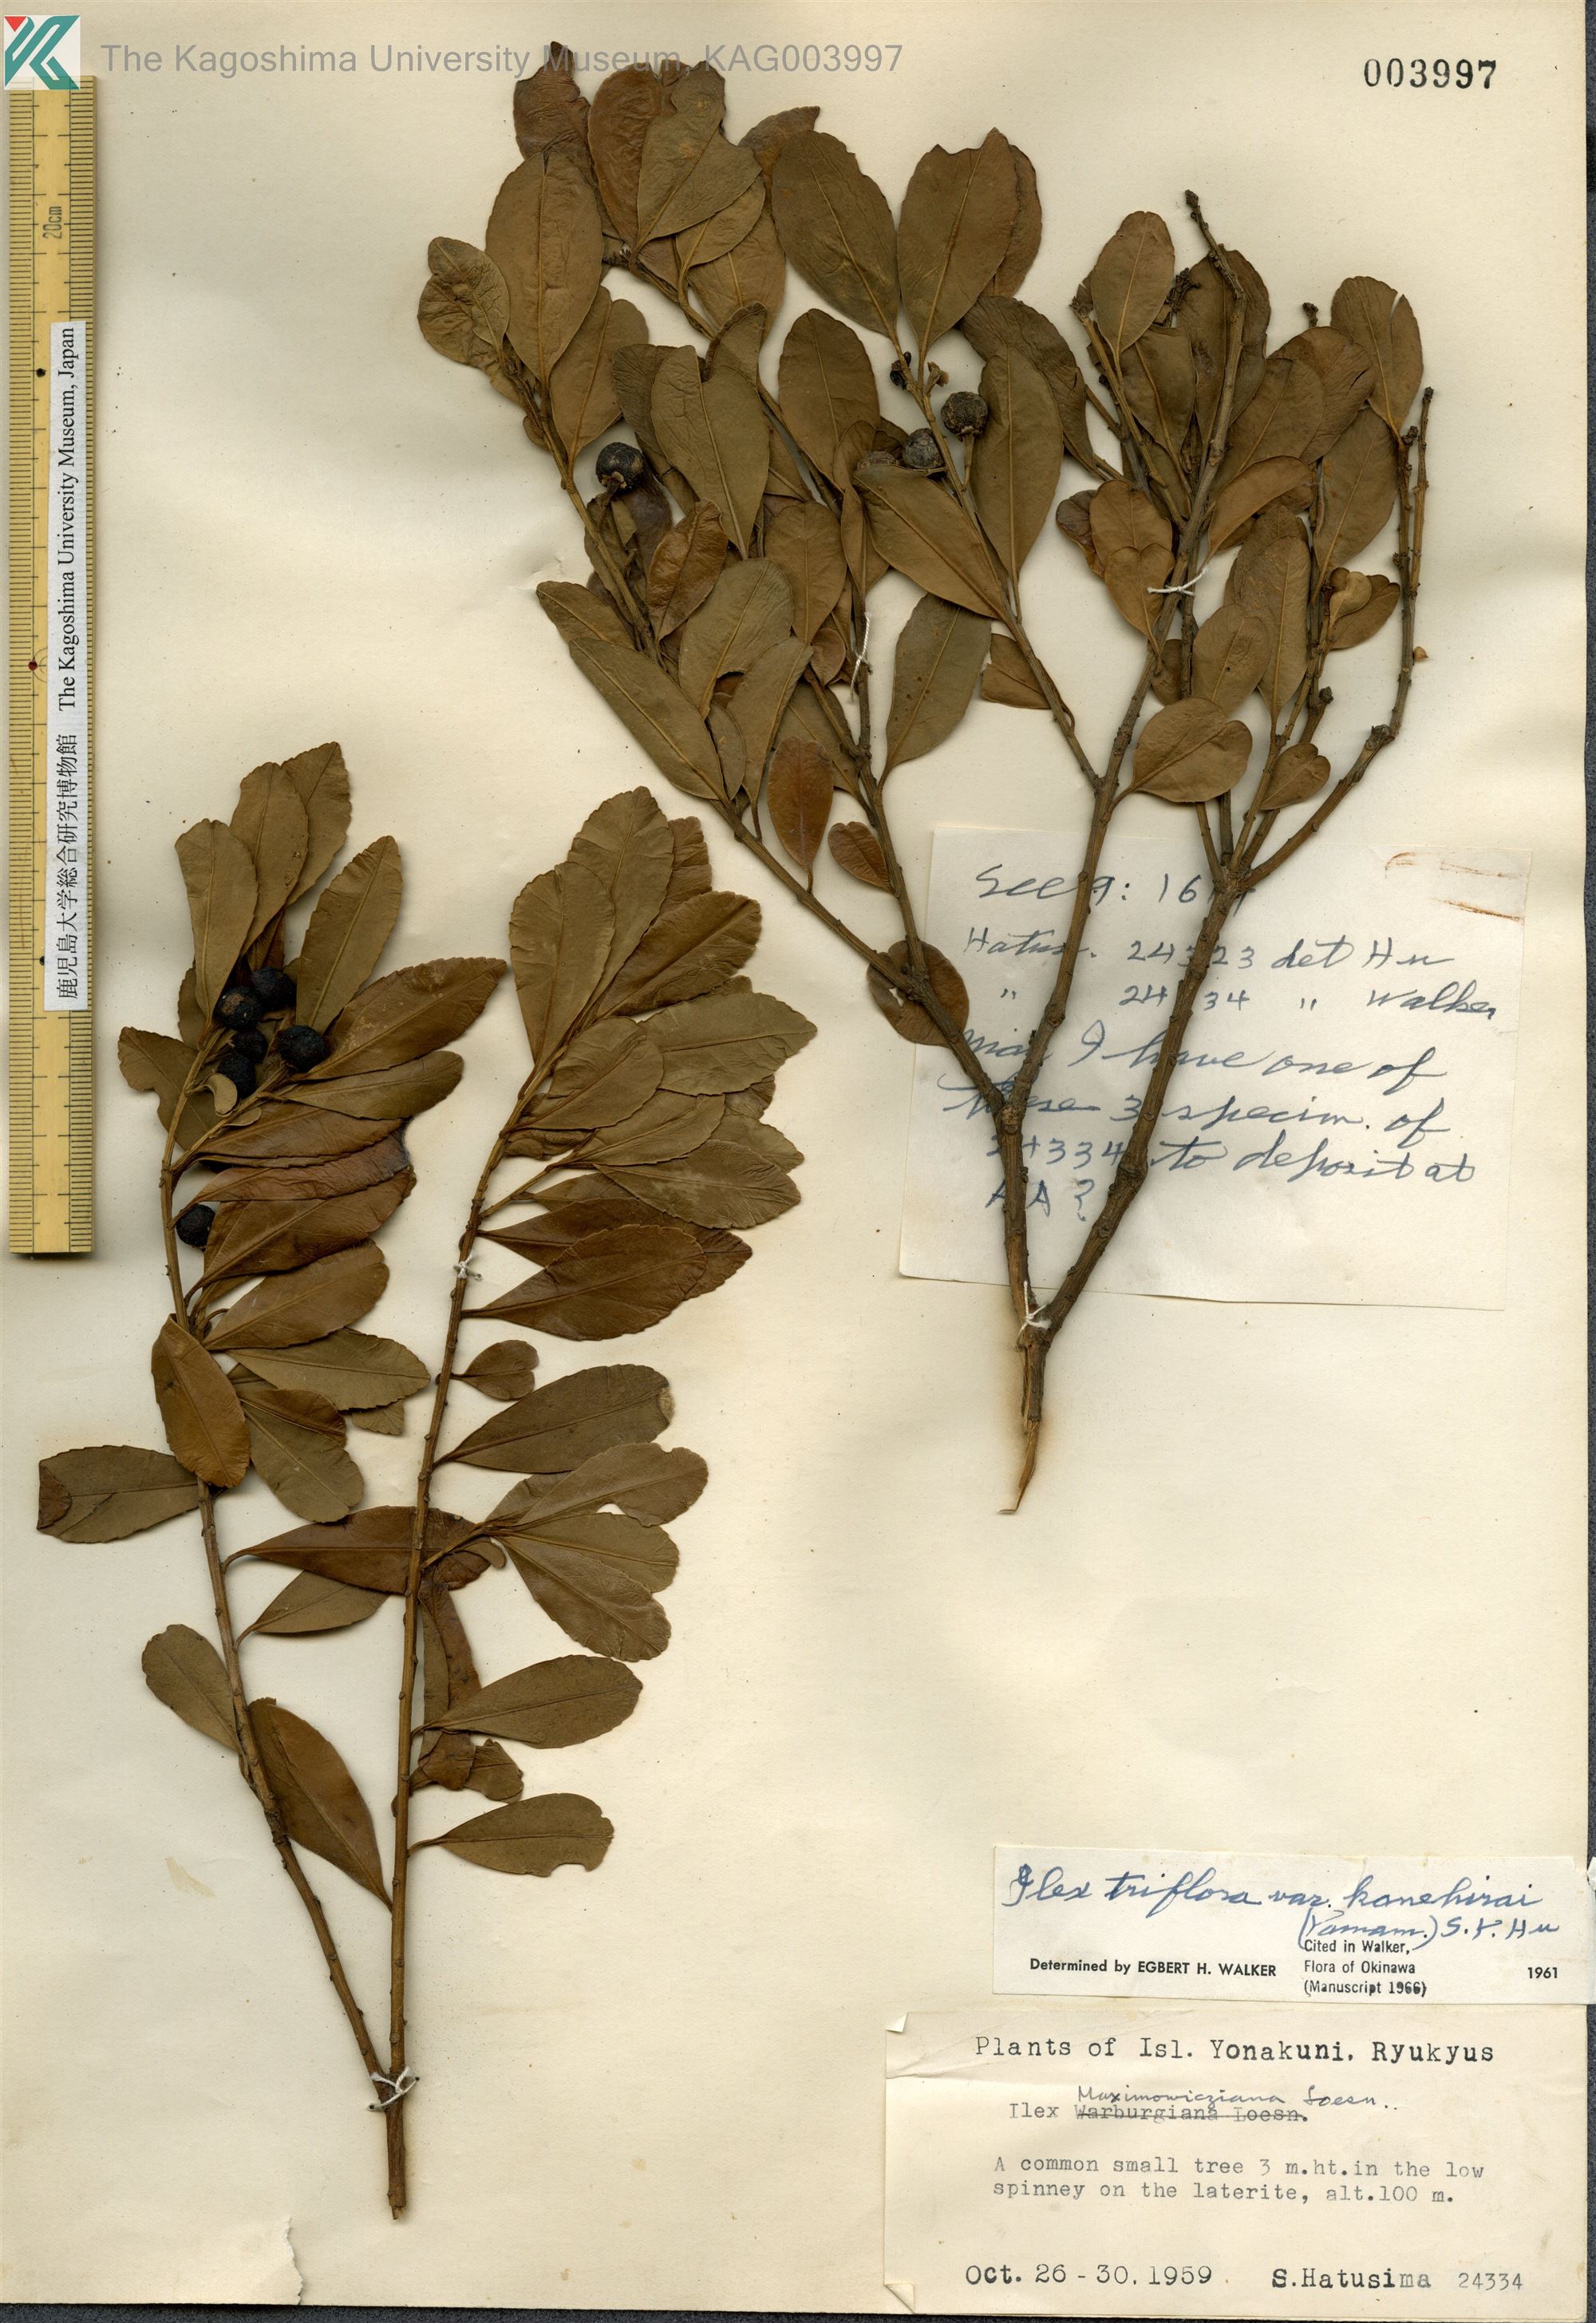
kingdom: Plantae
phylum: Tracheophyta
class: Magnoliopsida
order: Aquifoliales
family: Aquifoliaceae
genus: Ilex
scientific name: Ilex maximowicziana
